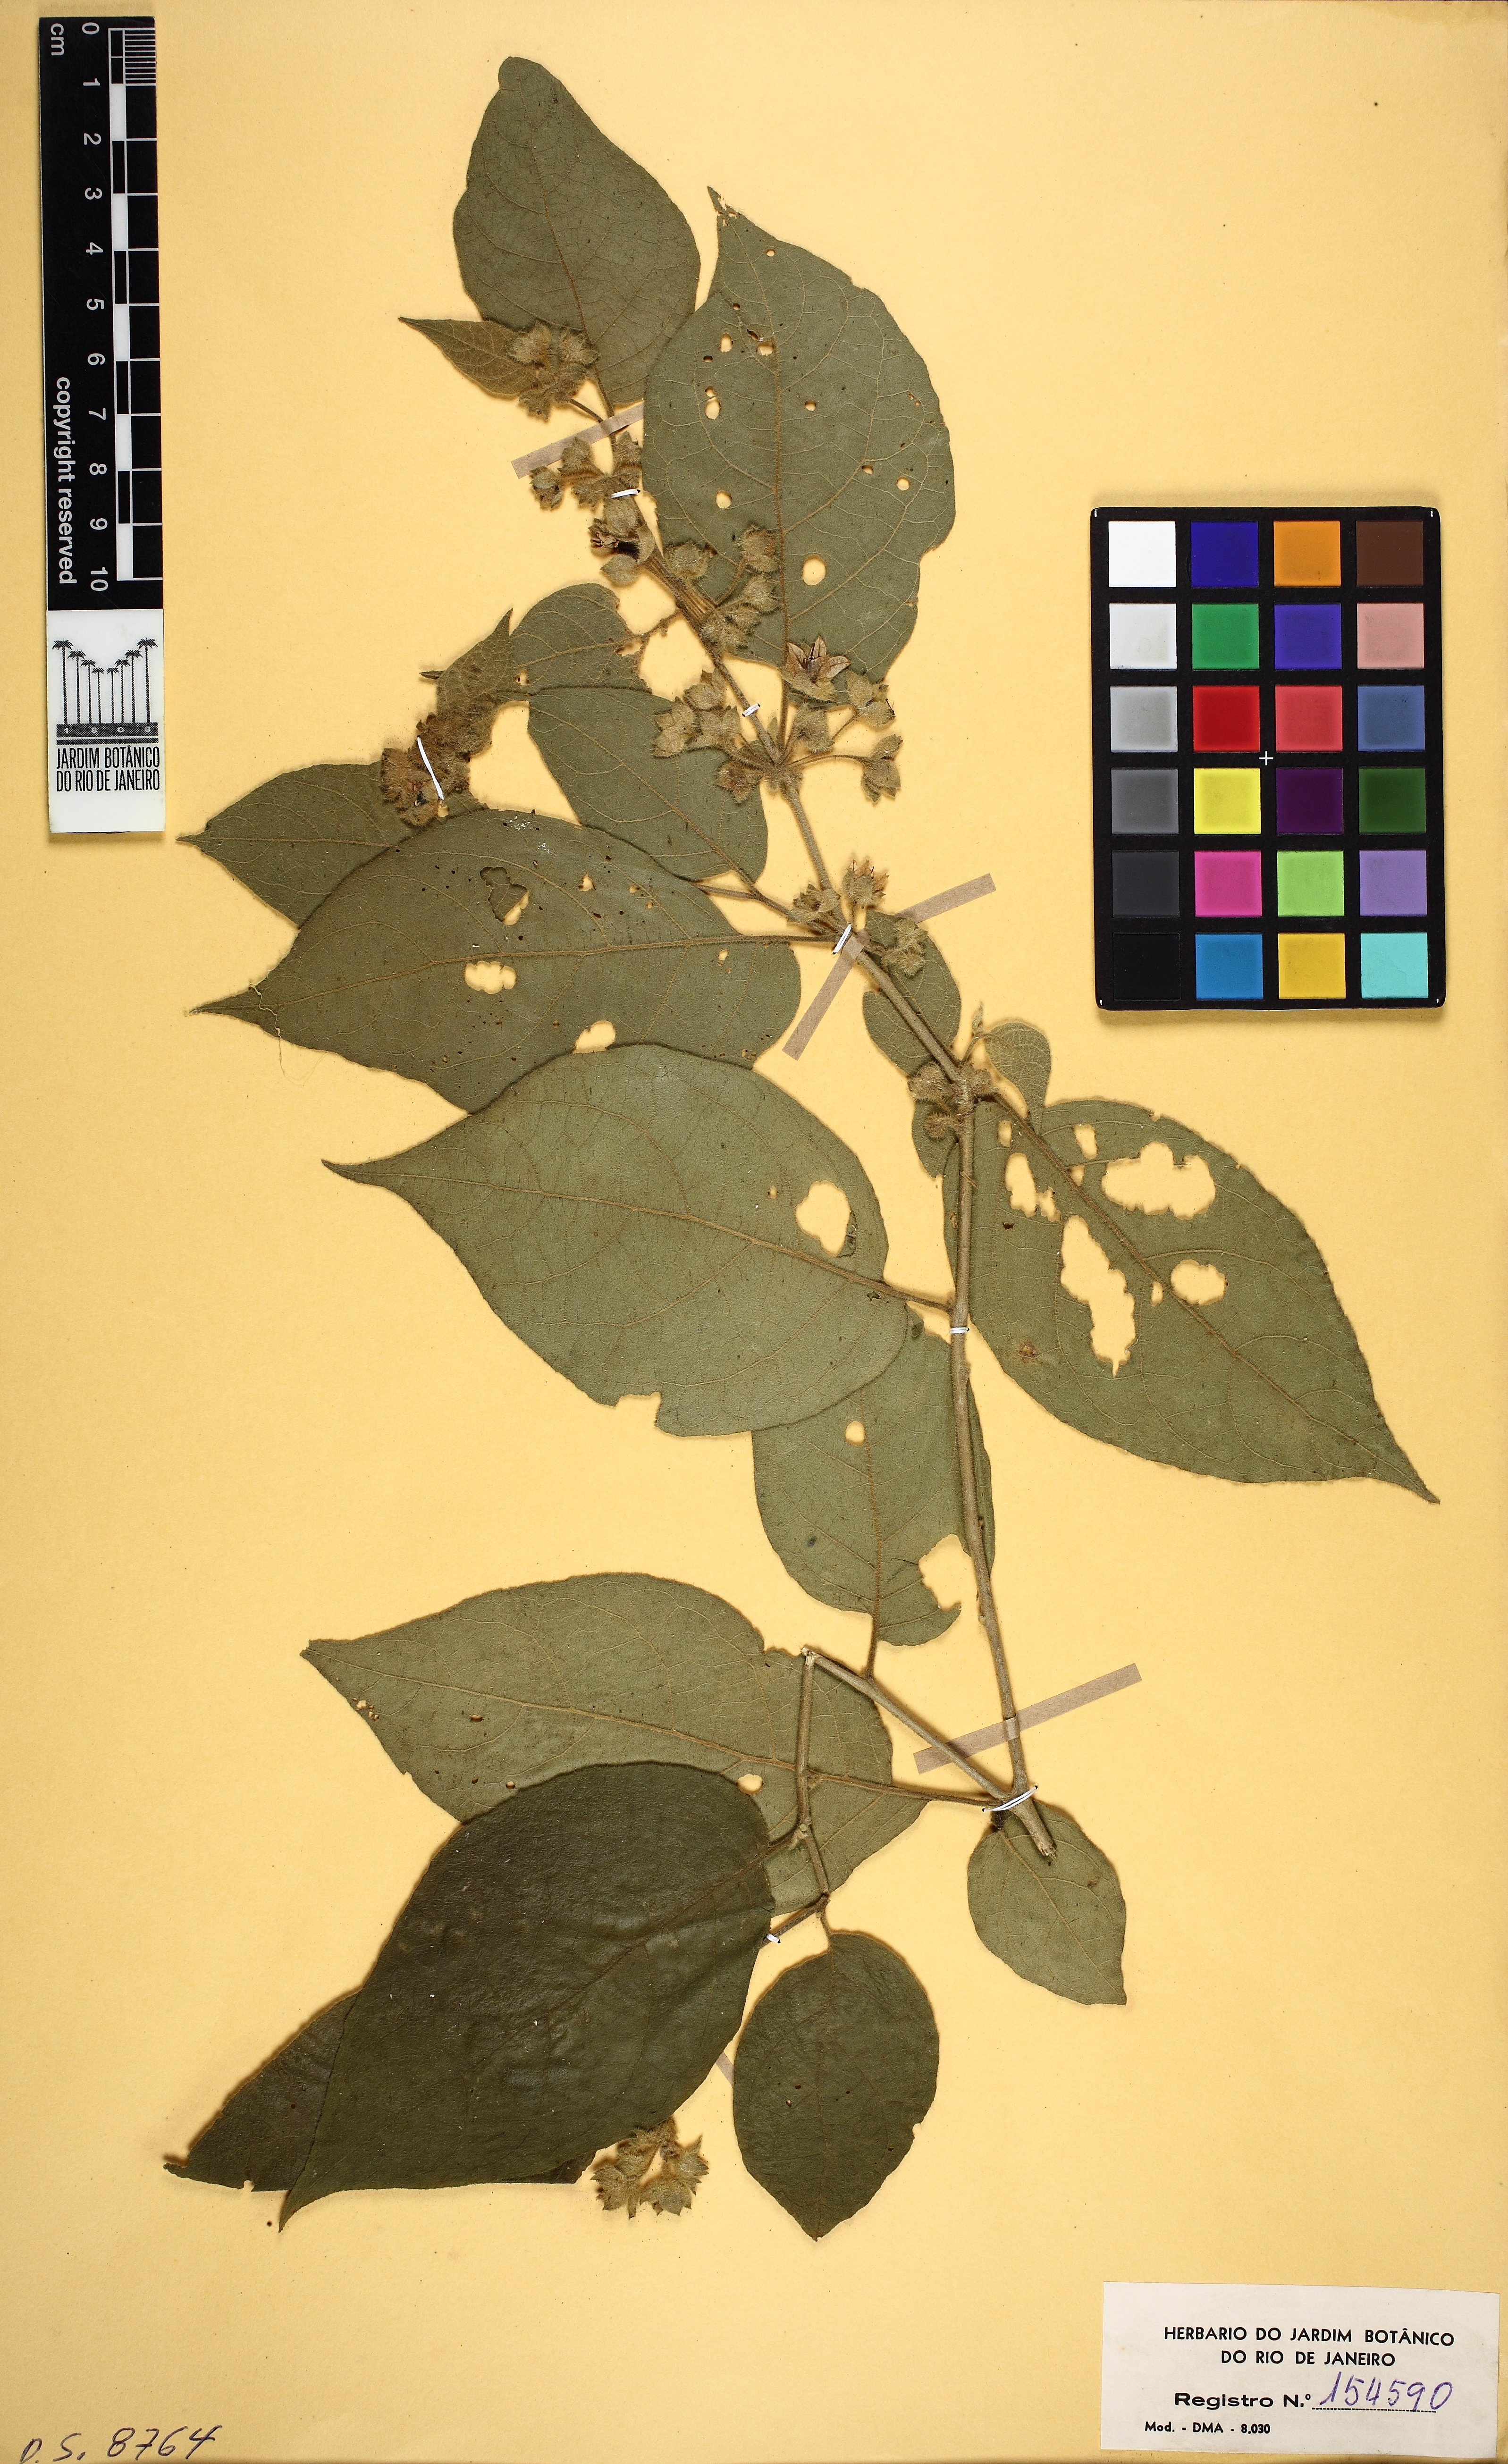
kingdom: Plantae
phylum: Tracheophyta
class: Magnoliopsida
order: Solanales
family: Solanaceae
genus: Solanum
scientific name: Solanum megalochiton
